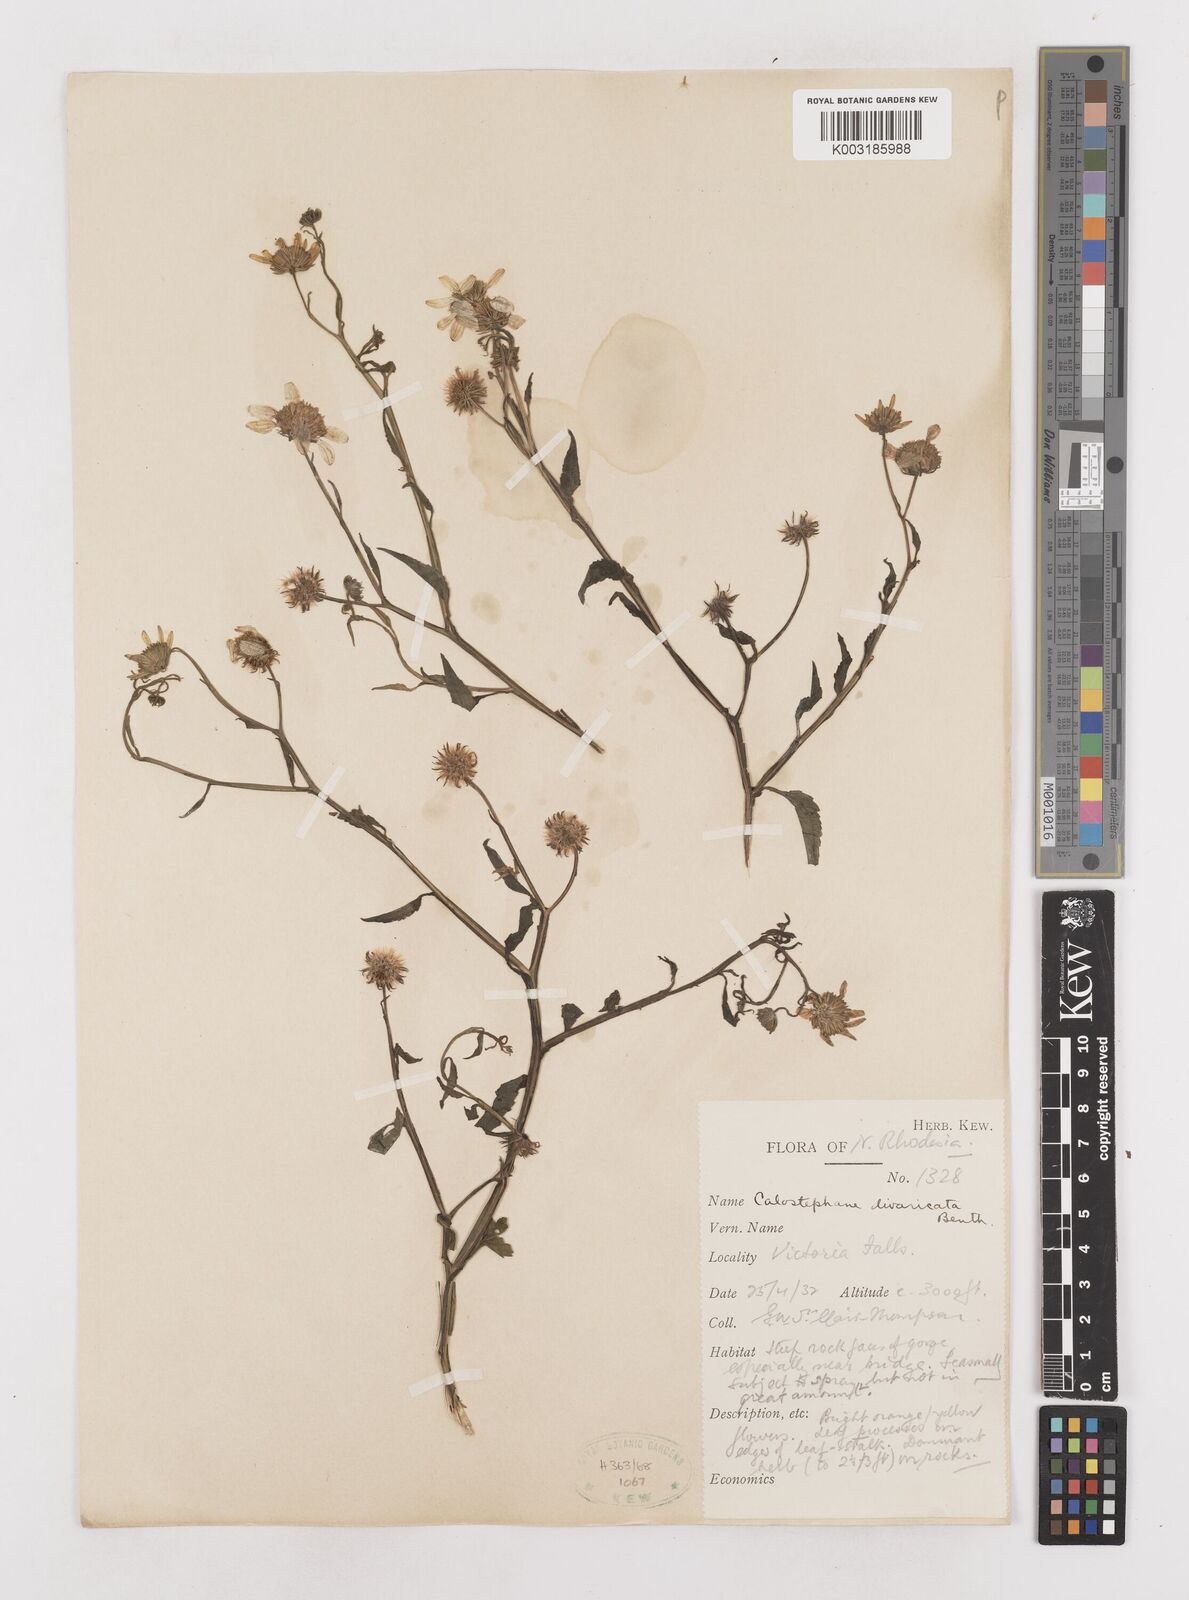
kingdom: Plantae
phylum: Tracheophyta
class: Magnoliopsida
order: Asterales
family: Asteraceae
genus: Calostephane
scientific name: Calostephane divaricata
